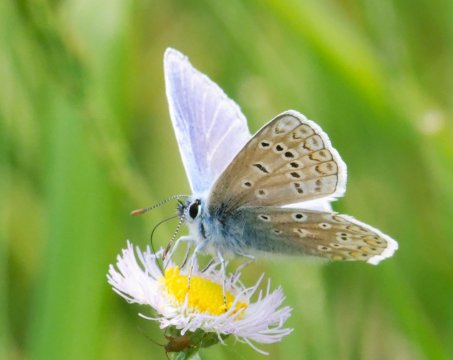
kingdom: Animalia
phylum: Arthropoda
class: Insecta
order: Lepidoptera
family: Lycaenidae
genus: Polyommatus
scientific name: Polyommatus icarus
